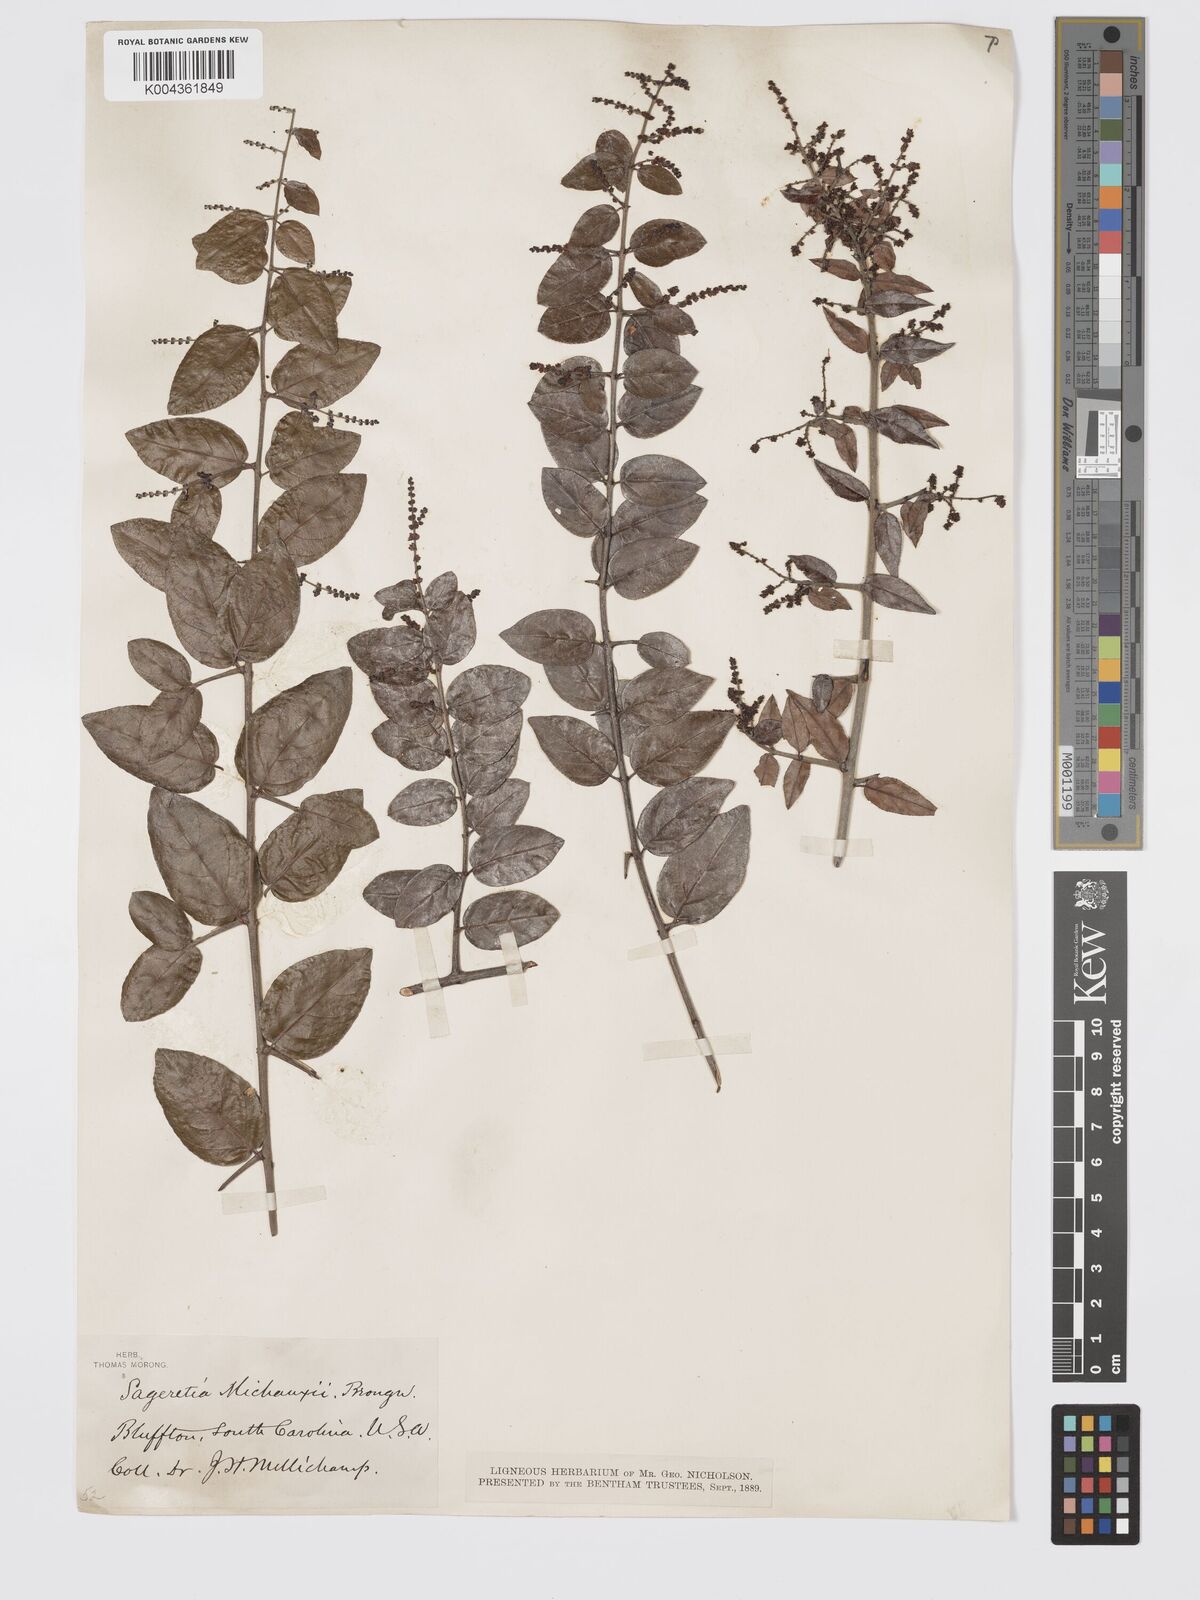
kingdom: Plantae
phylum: Tracheophyta
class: Magnoliopsida
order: Rosales
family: Rhamnaceae
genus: Sageretia
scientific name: Sageretia
